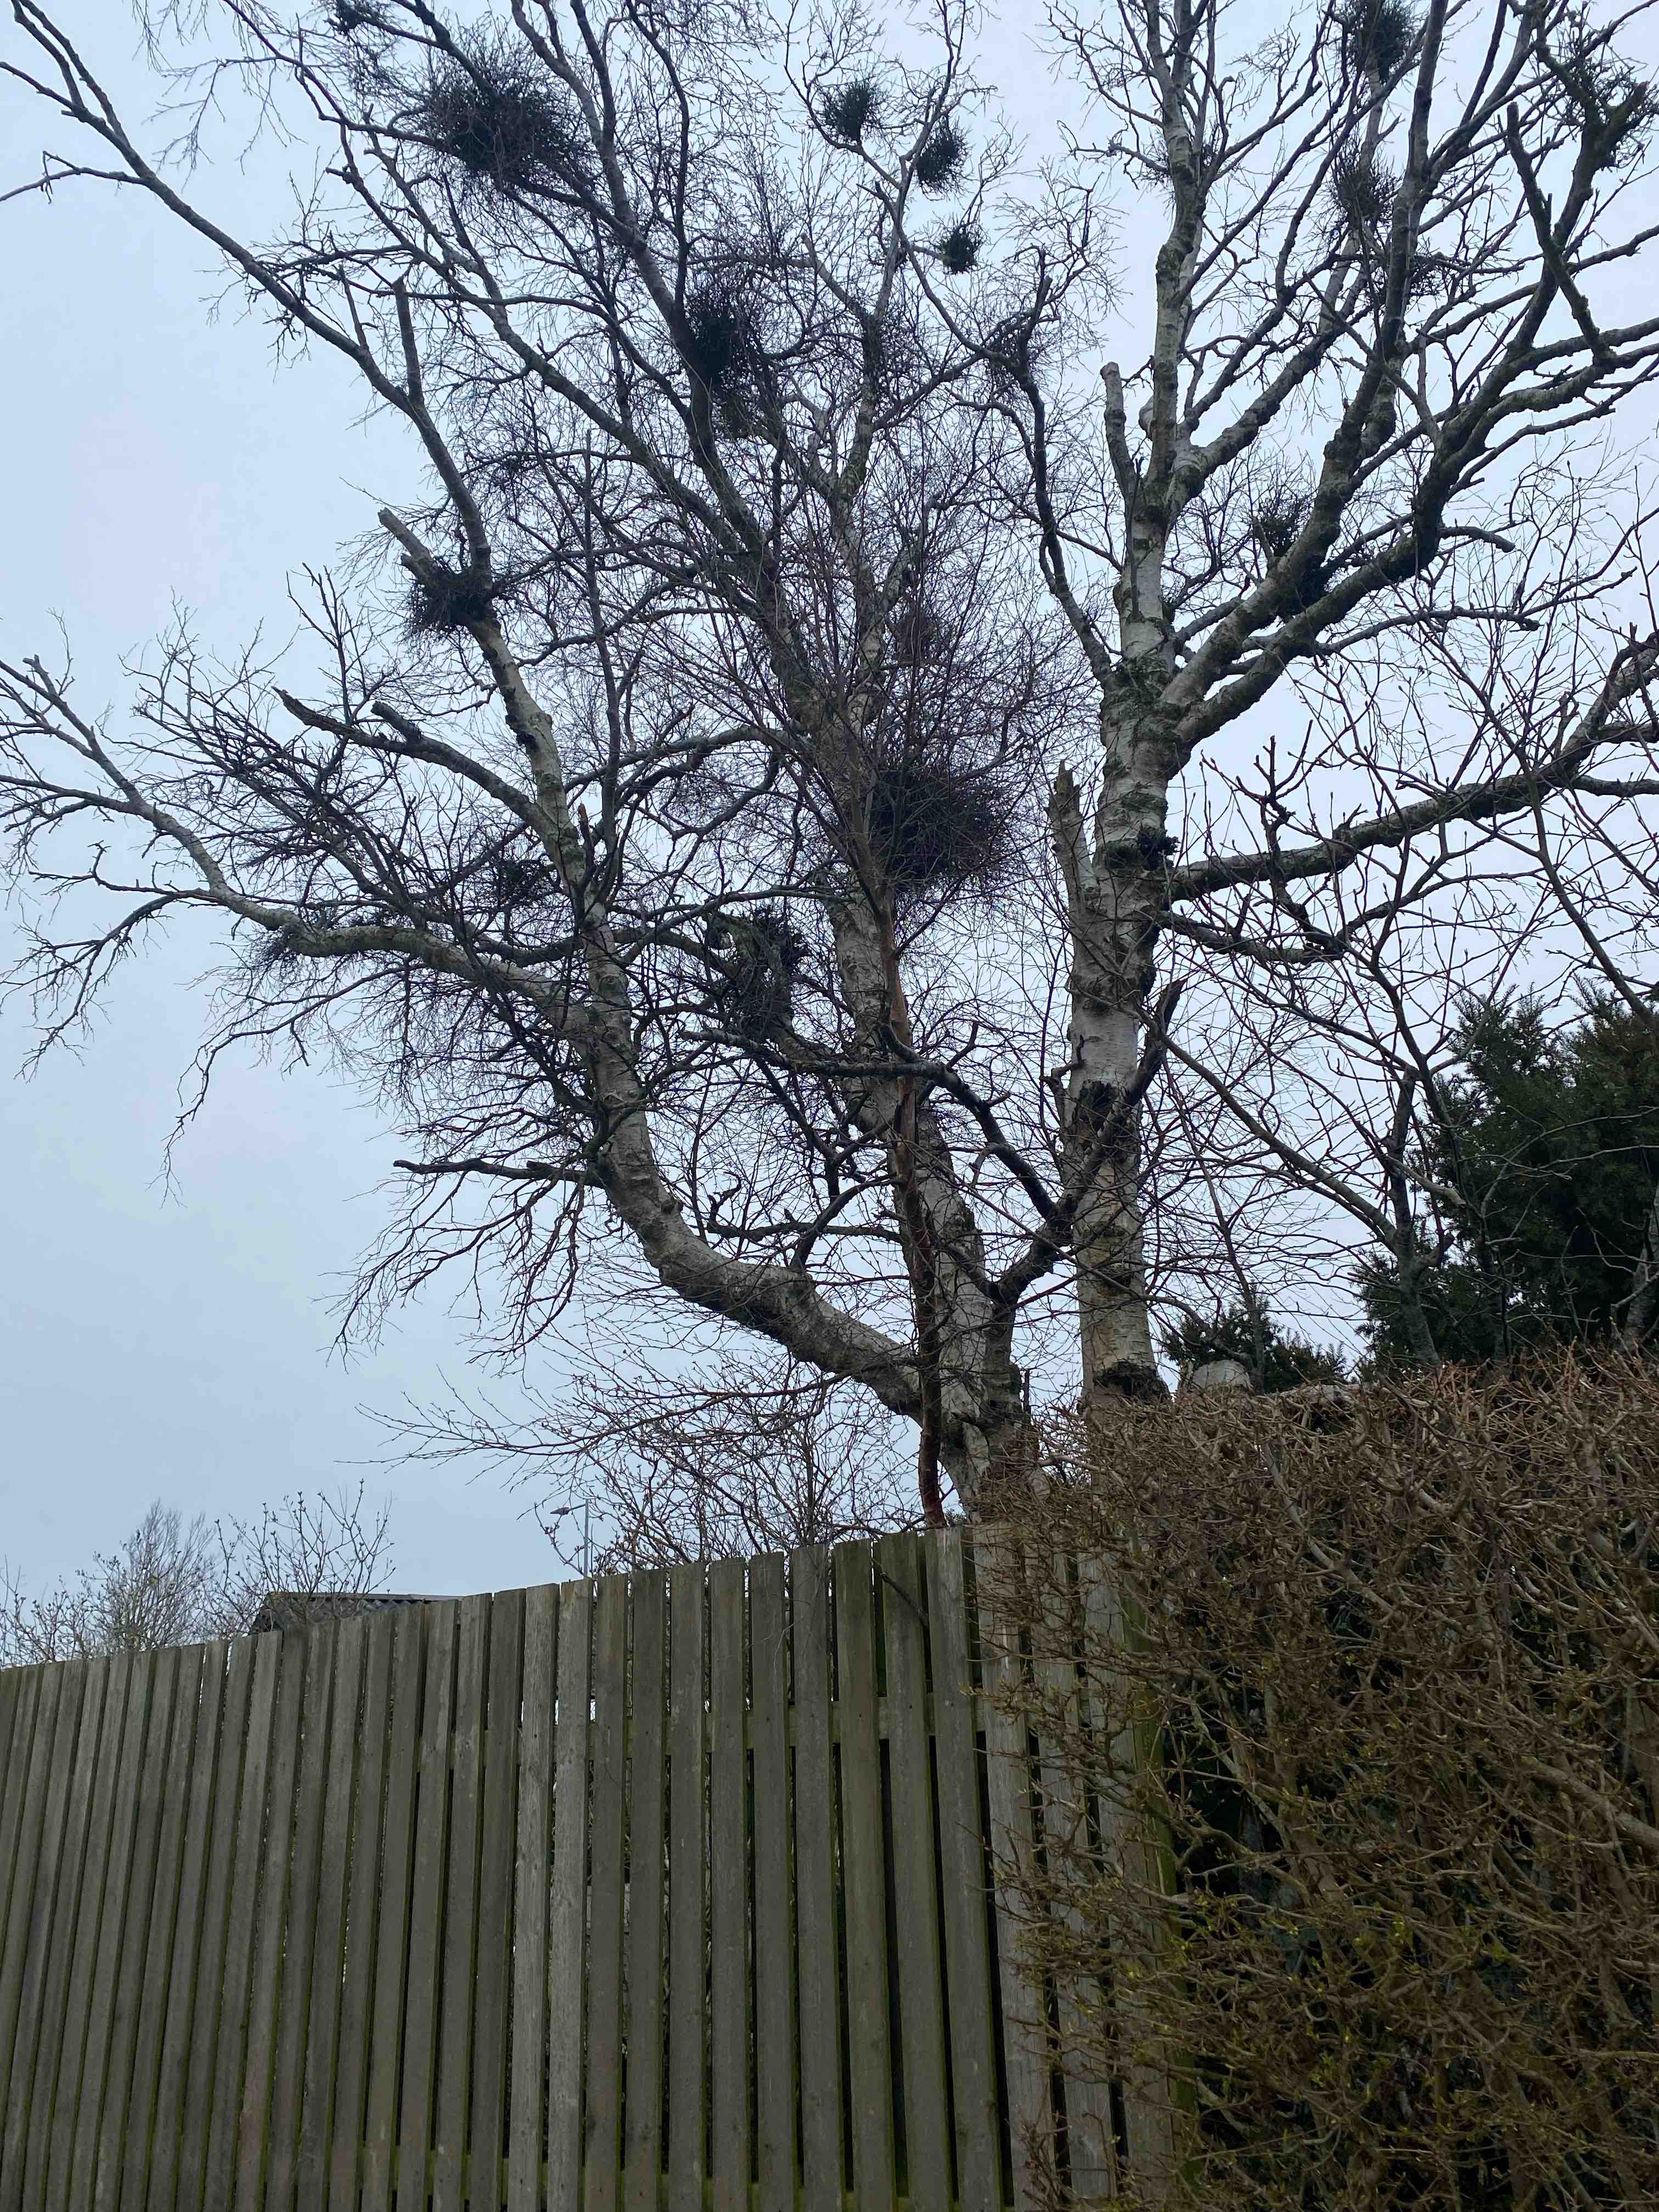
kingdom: Fungi
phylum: Ascomycota
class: Taphrinomycetes
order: Taphrinales
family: Taphrinaceae
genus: Taphrina
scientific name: Taphrina betulina
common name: hekse-sækdug
